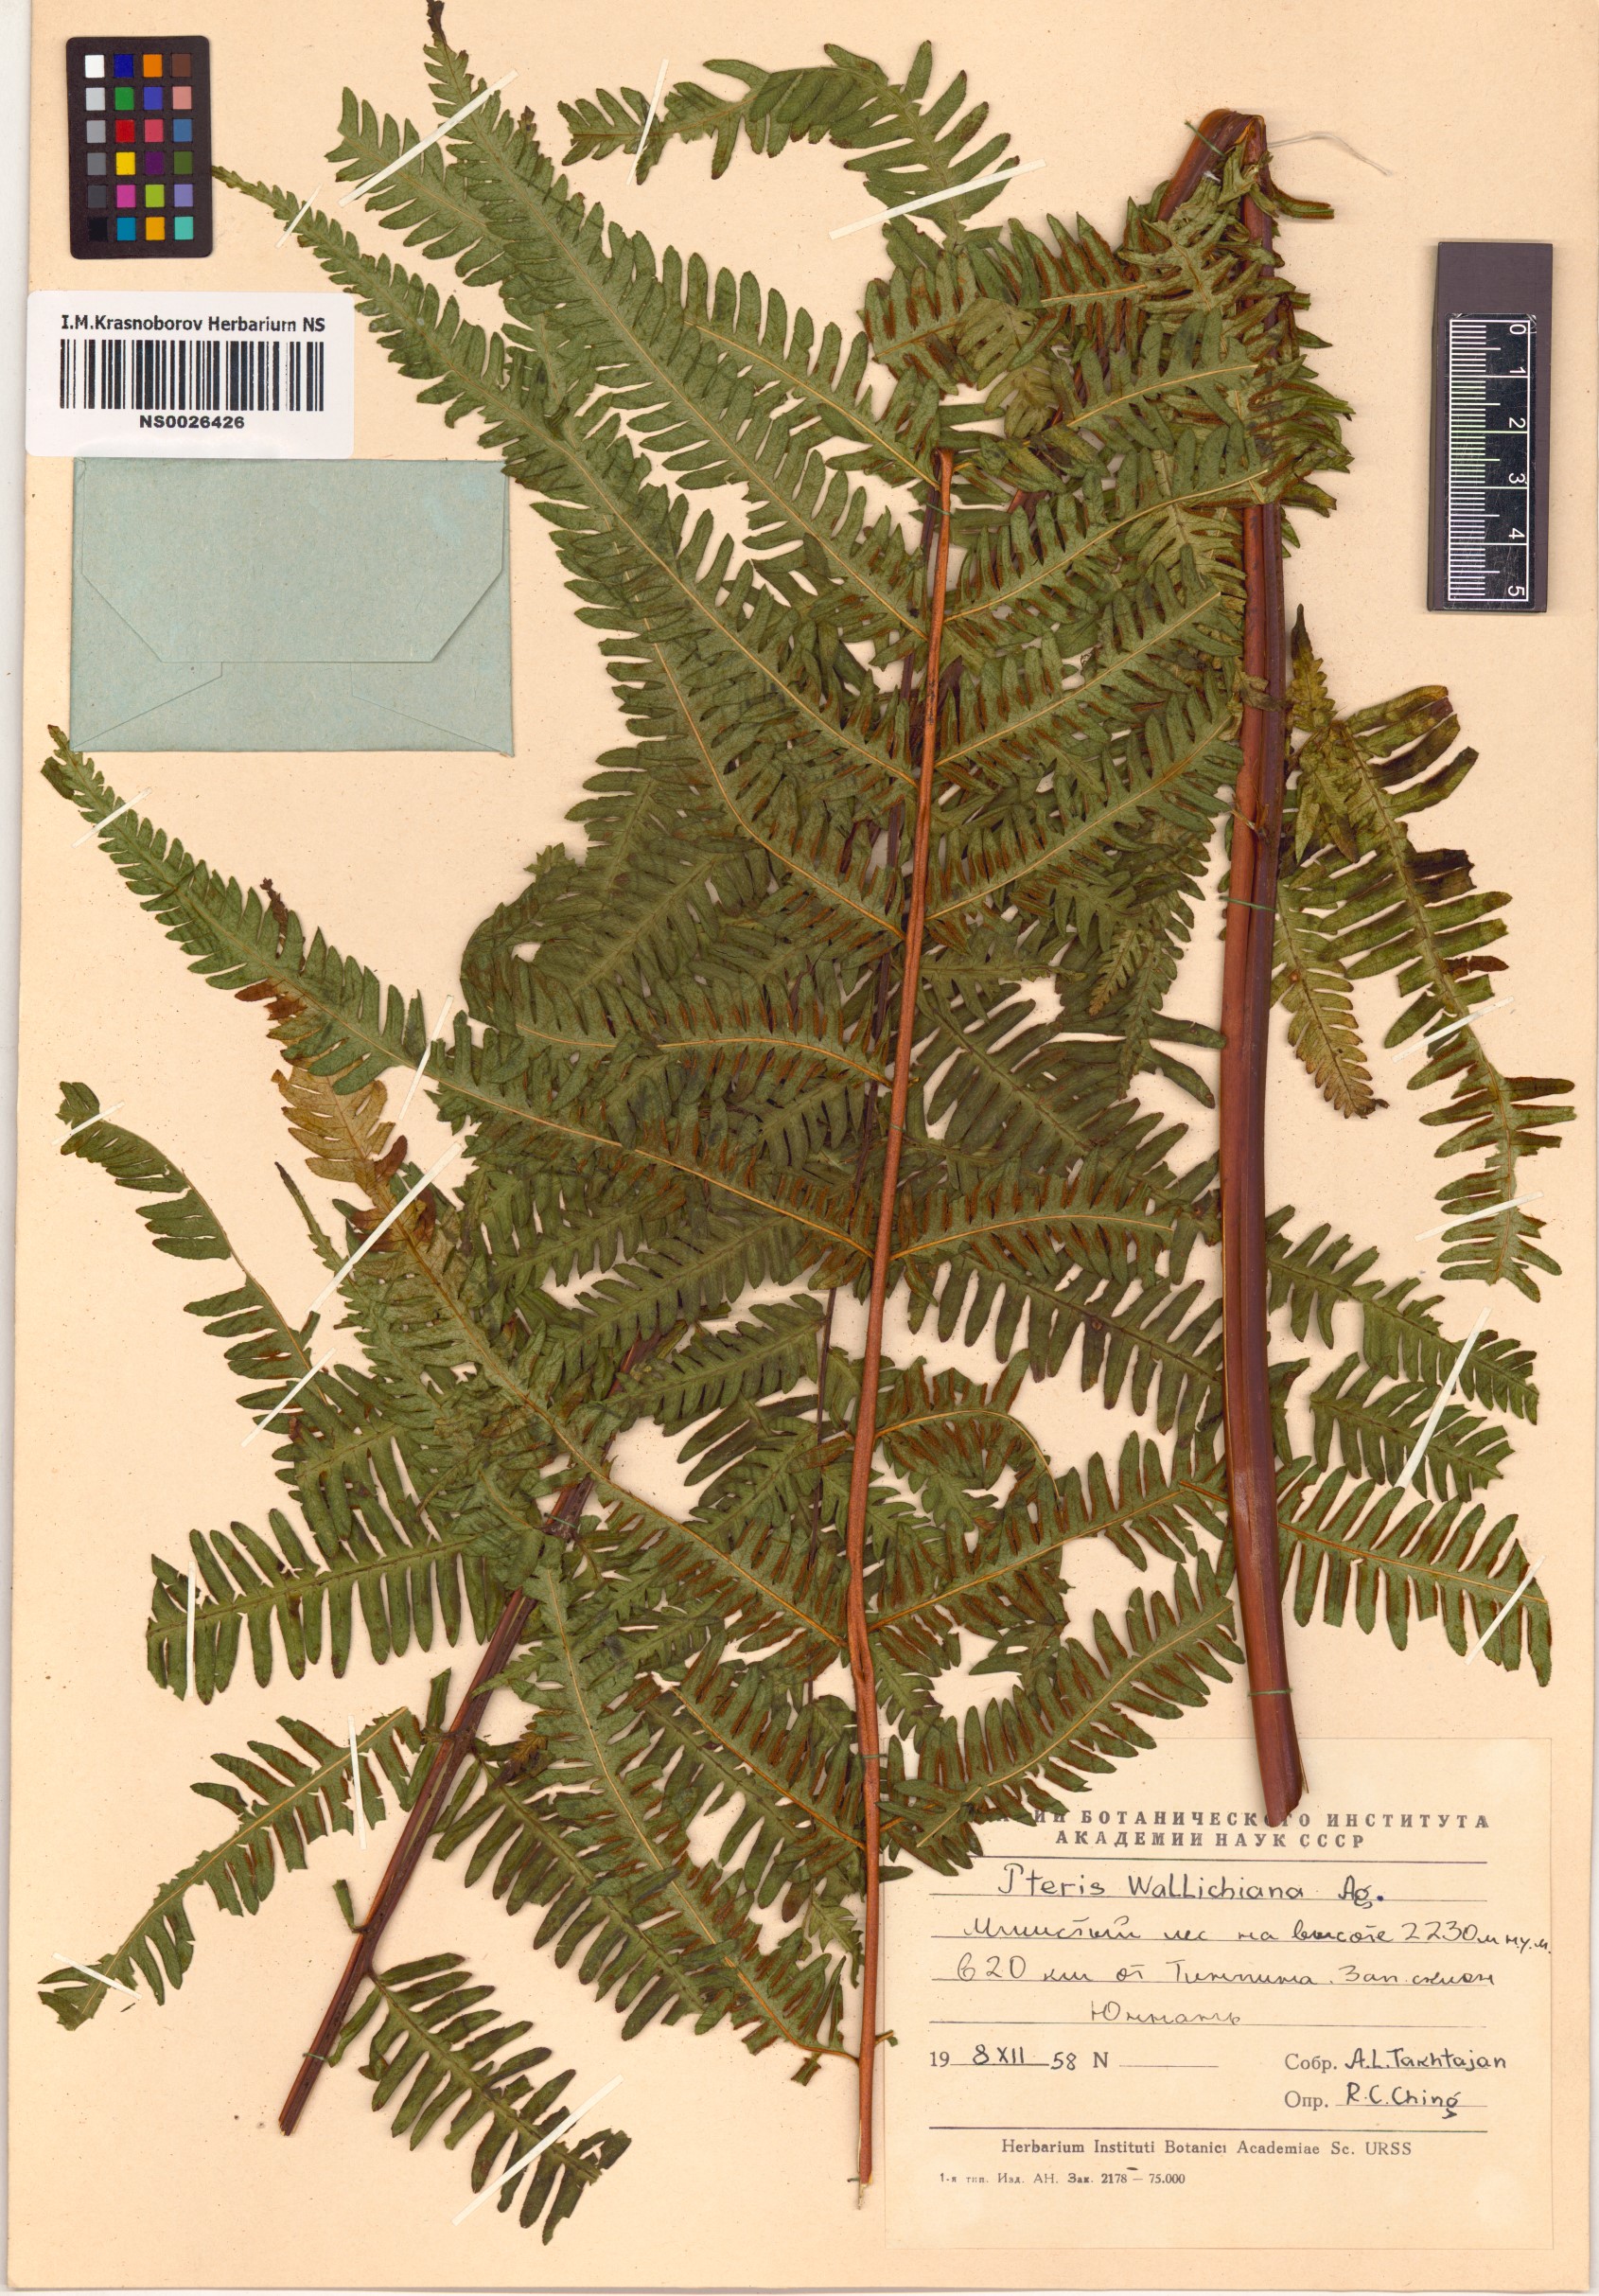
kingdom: Plantae
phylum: Tracheophyta
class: Polypodiopsida
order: Polypodiales
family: Pteridaceae
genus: Pteris
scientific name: Pteris wallichiana
